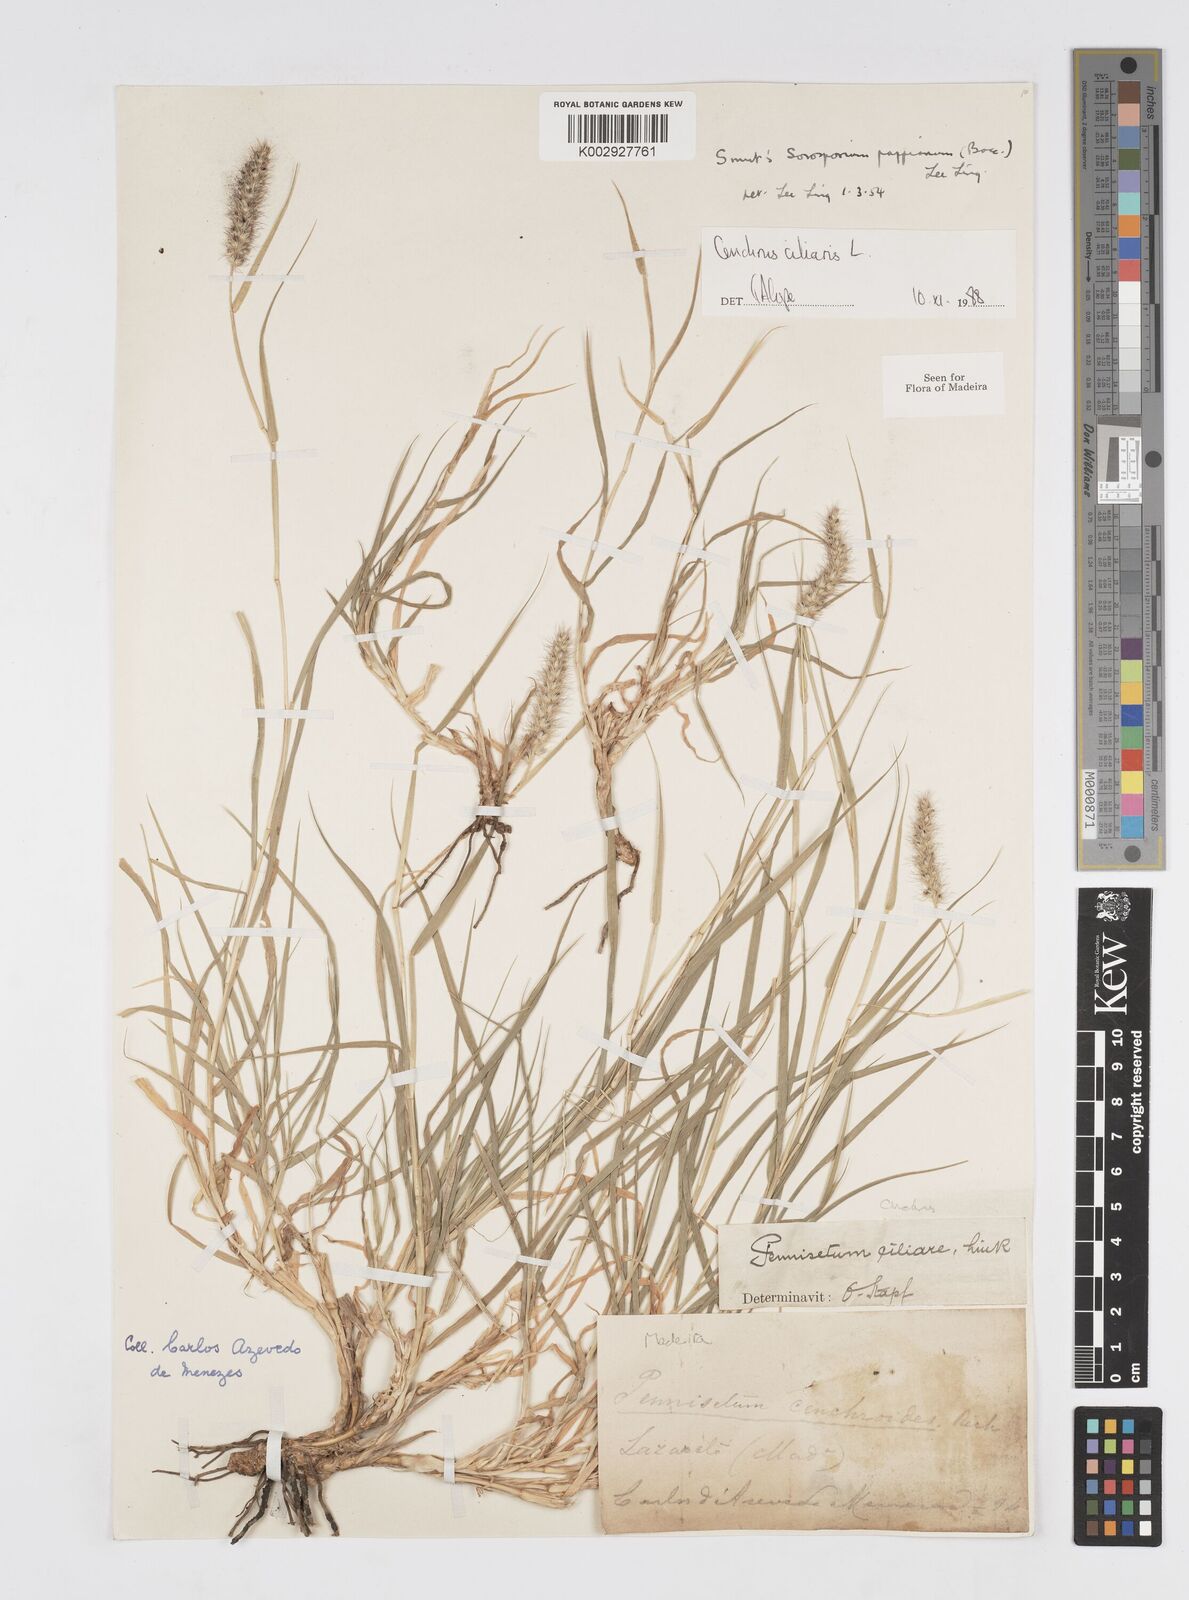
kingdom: Plantae
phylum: Tracheophyta
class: Liliopsida
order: Poales
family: Poaceae
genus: Cenchrus
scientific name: Cenchrus ciliaris
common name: Buffelgrass
